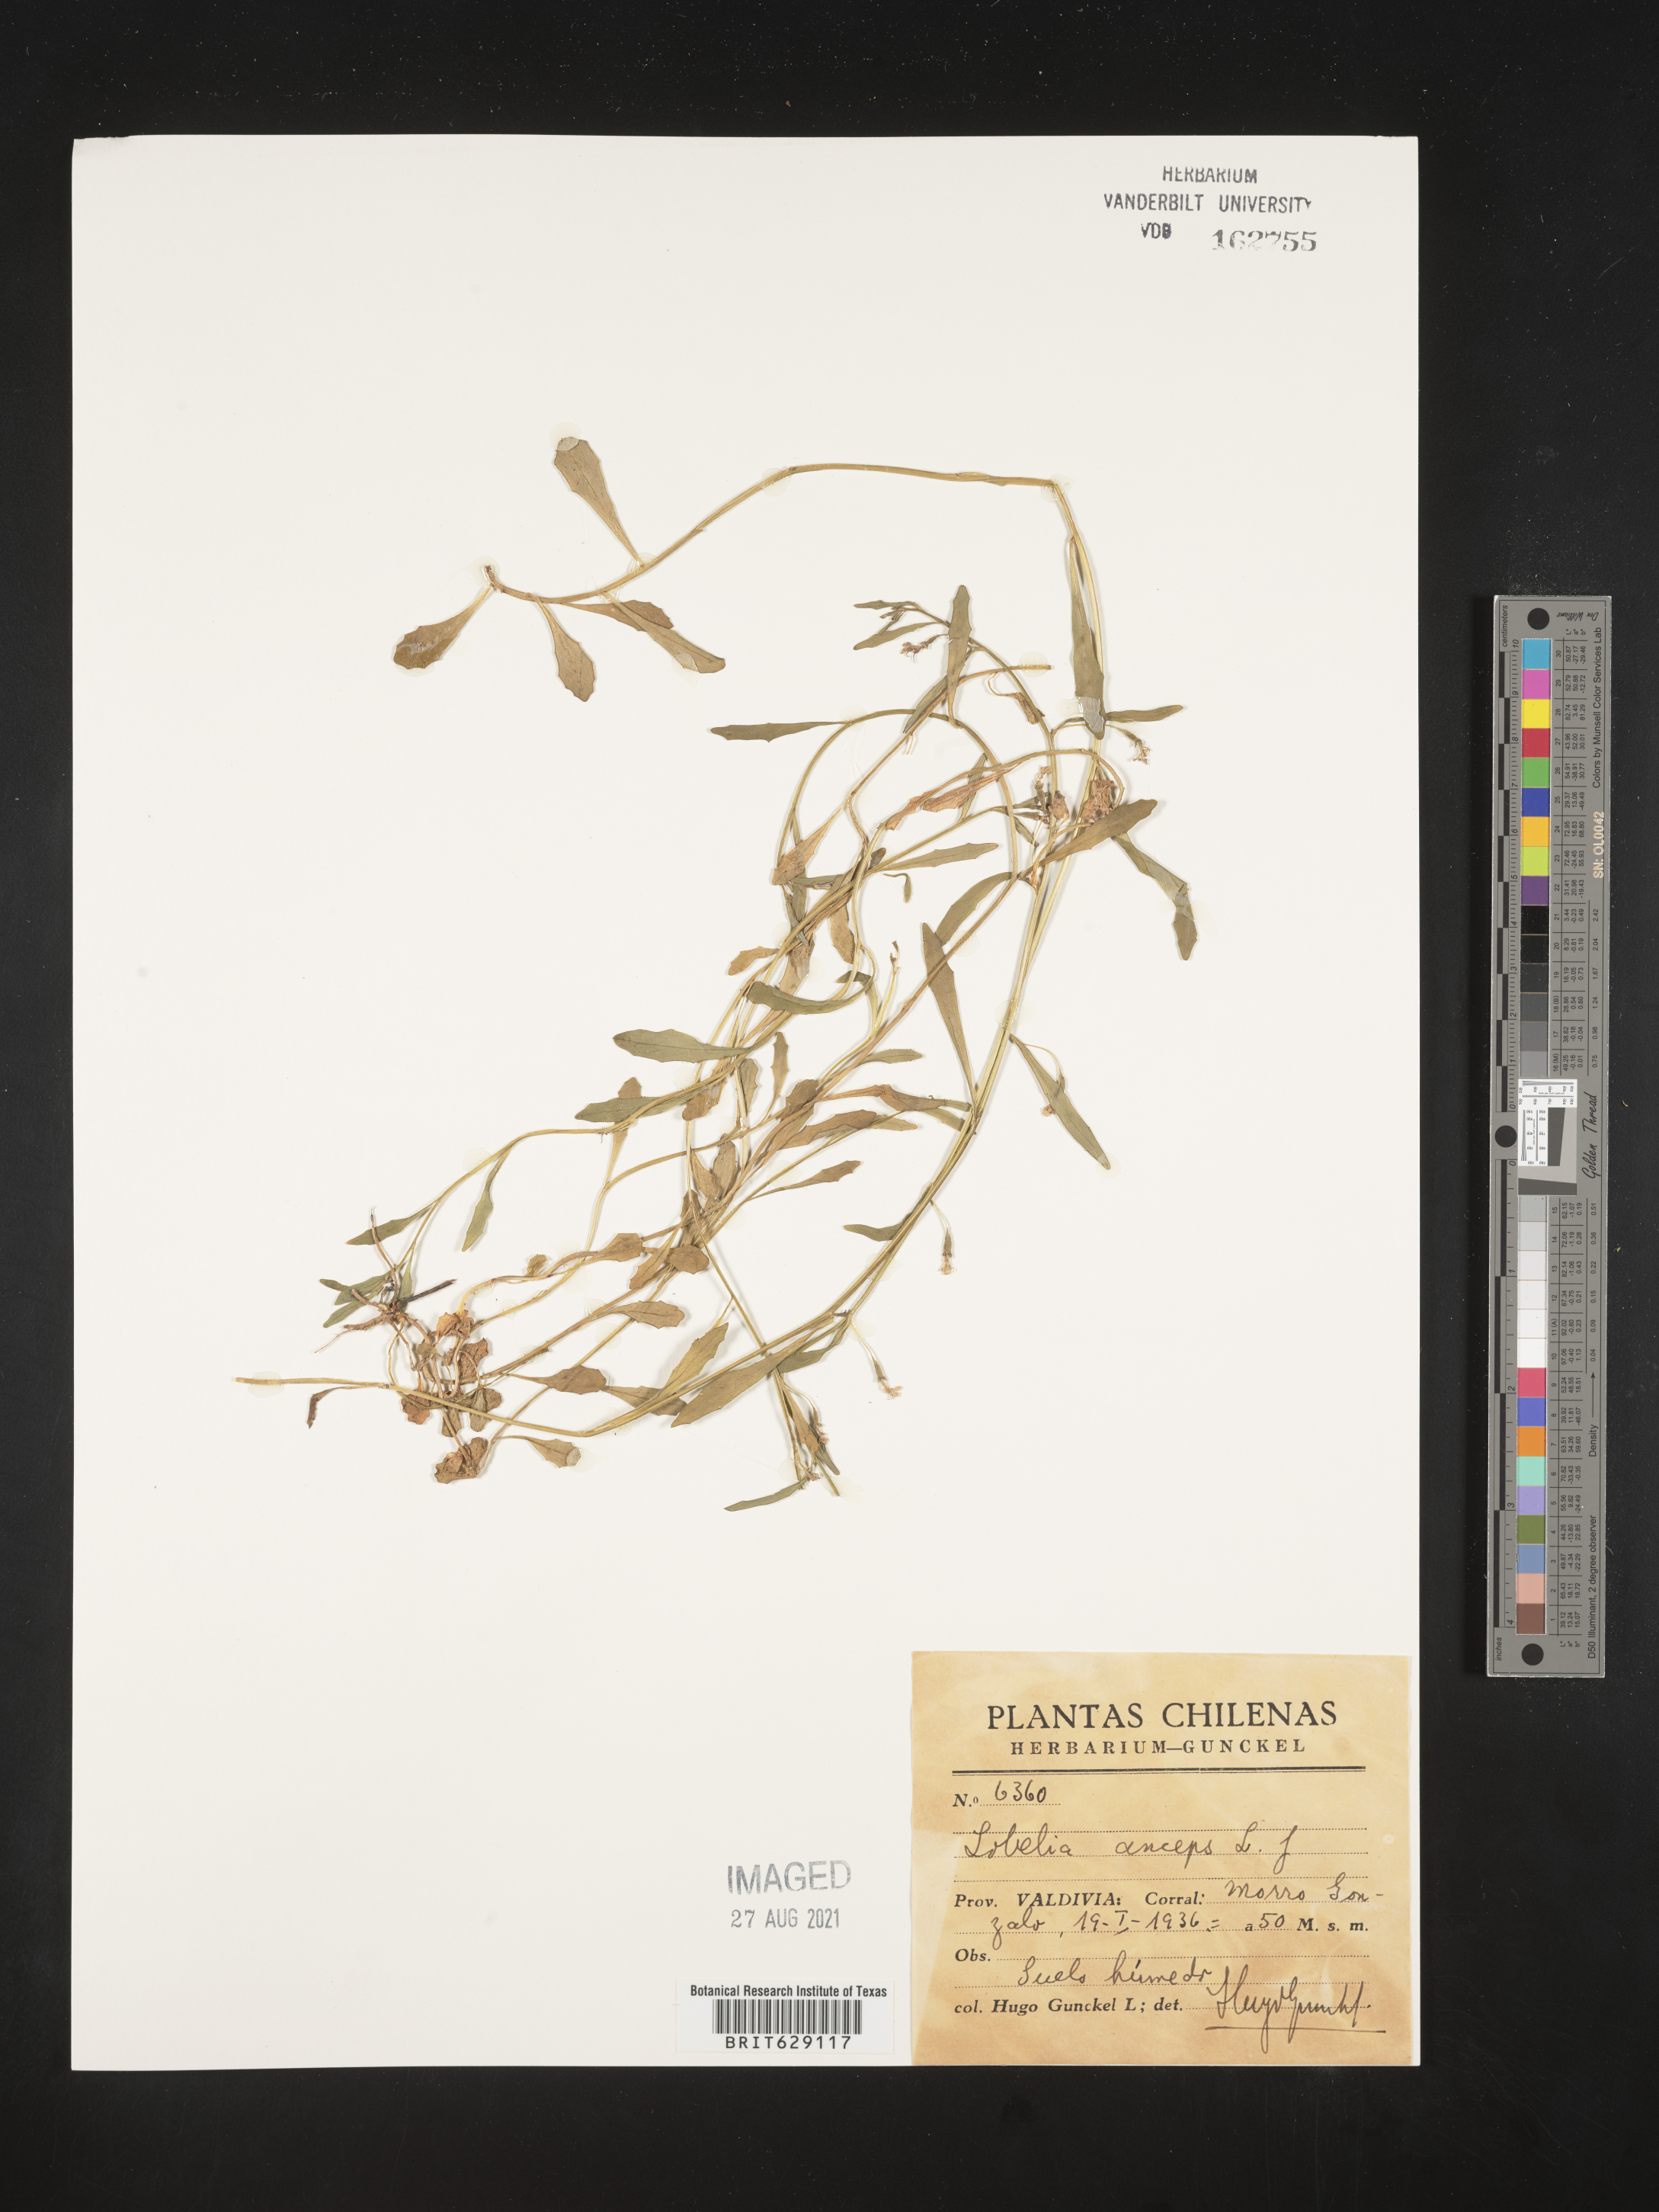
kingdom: Plantae
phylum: Tracheophyta
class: Magnoliopsida
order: Asterales
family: Campanulaceae
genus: Lobelia
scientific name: Lobelia anatina
